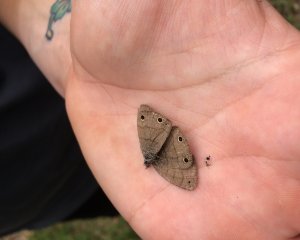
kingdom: Animalia
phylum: Arthropoda
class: Insecta
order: Lepidoptera
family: Nymphalidae
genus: Hermeuptychia
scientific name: Hermeuptychia hermes
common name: Carolina Satyr
